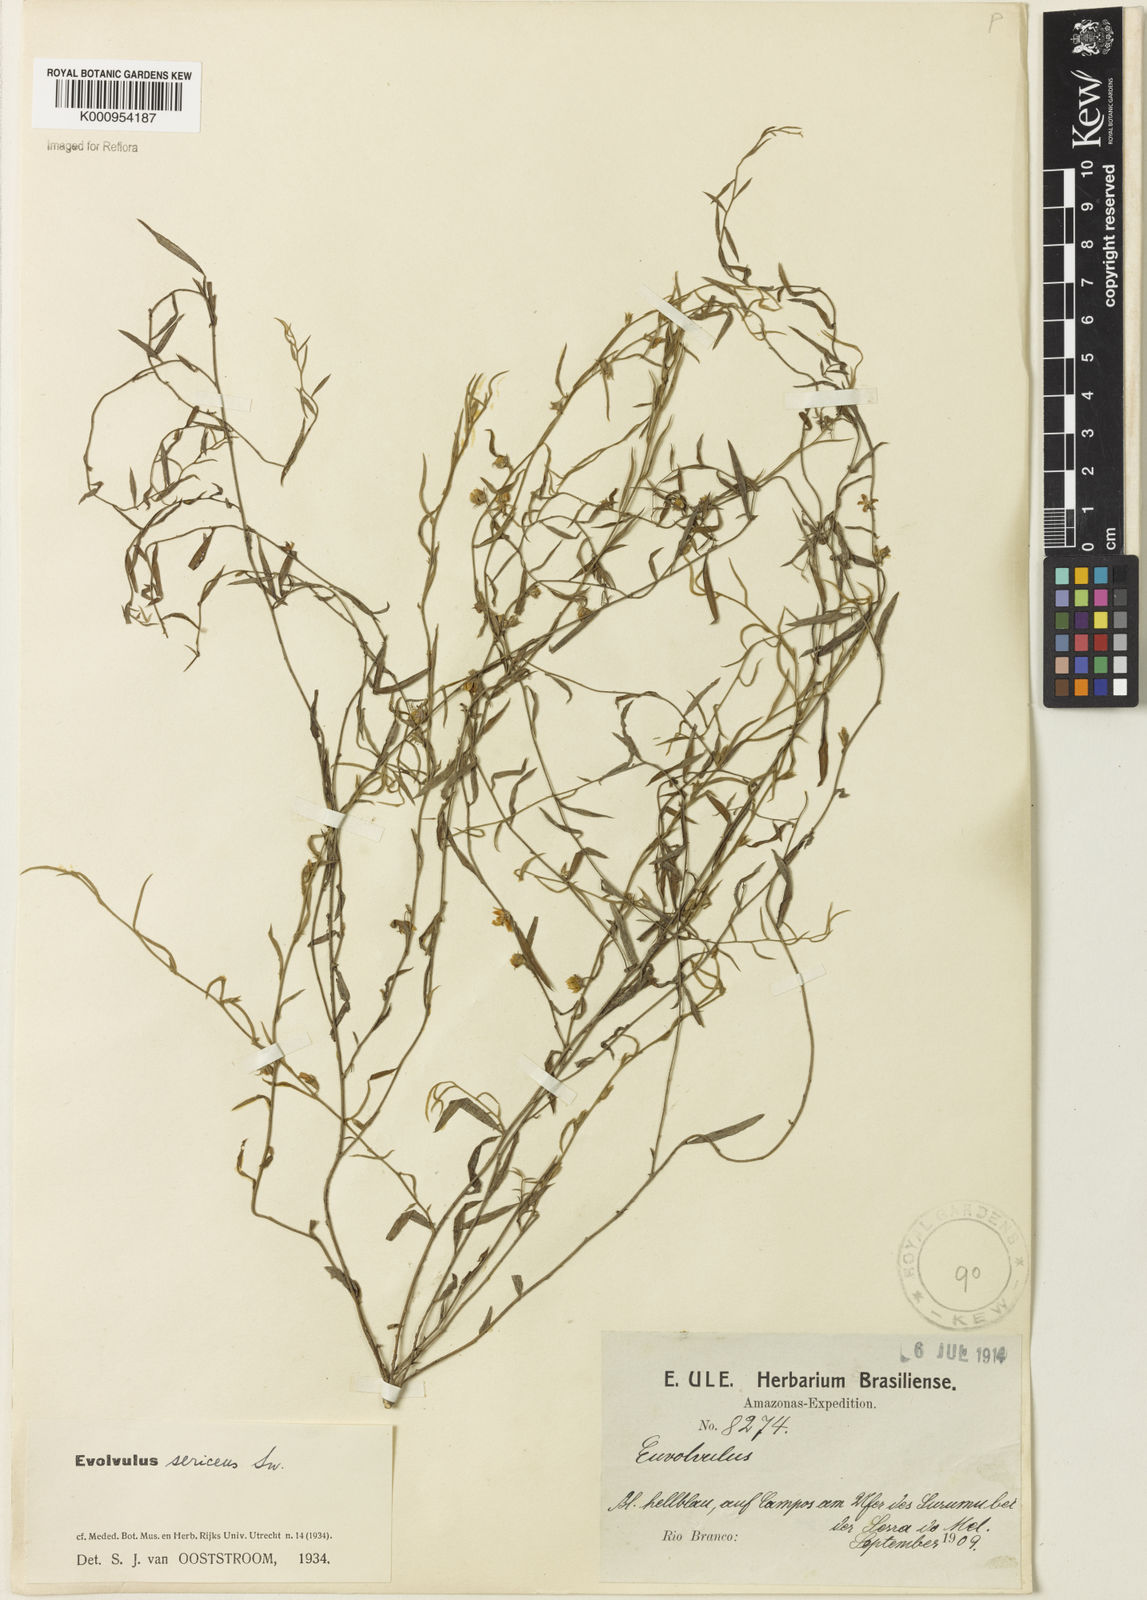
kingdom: Plantae
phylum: Tracheophyta
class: Magnoliopsida
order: Solanales
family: Convolvulaceae
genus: Evolvulus
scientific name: Evolvulus
